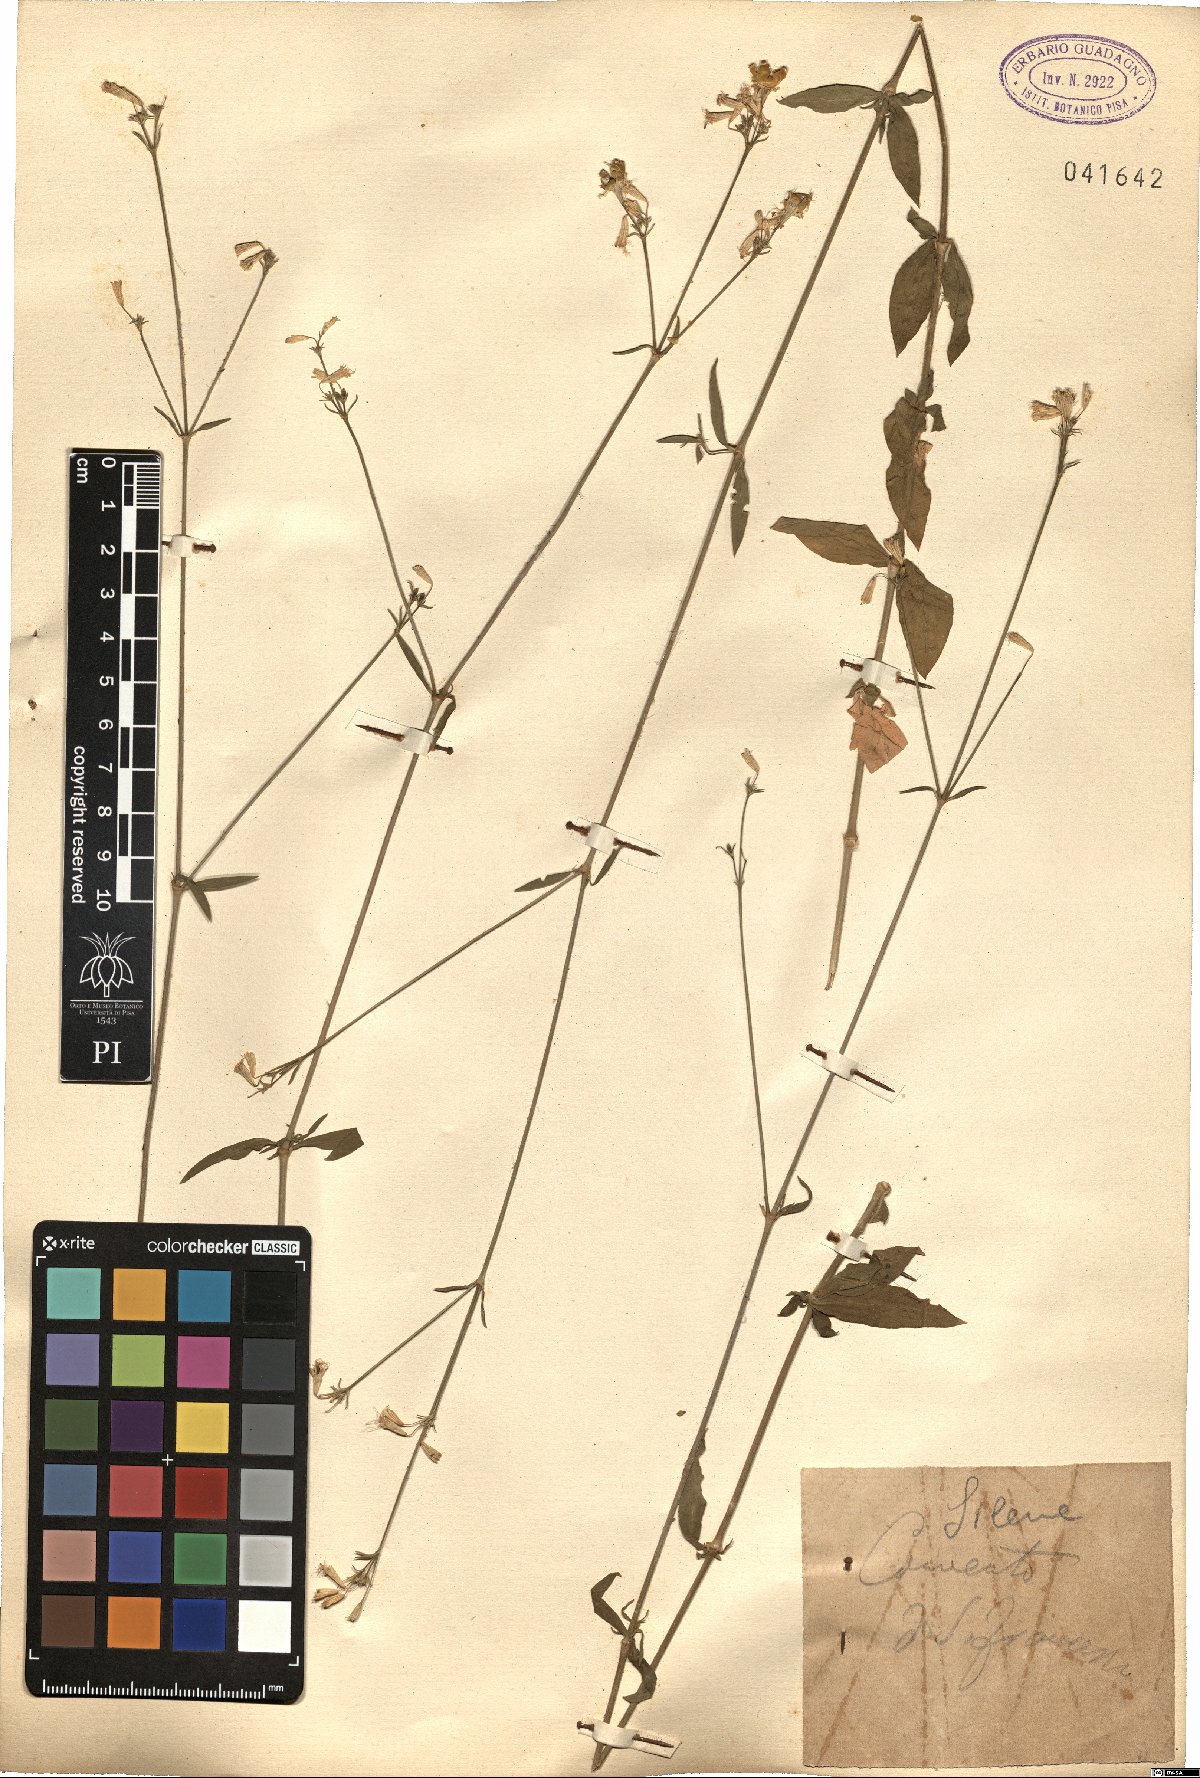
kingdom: Plantae
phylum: Tracheophyta
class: Magnoliopsida
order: Caryophyllales
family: Caryophyllaceae
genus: Silene
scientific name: Silene
